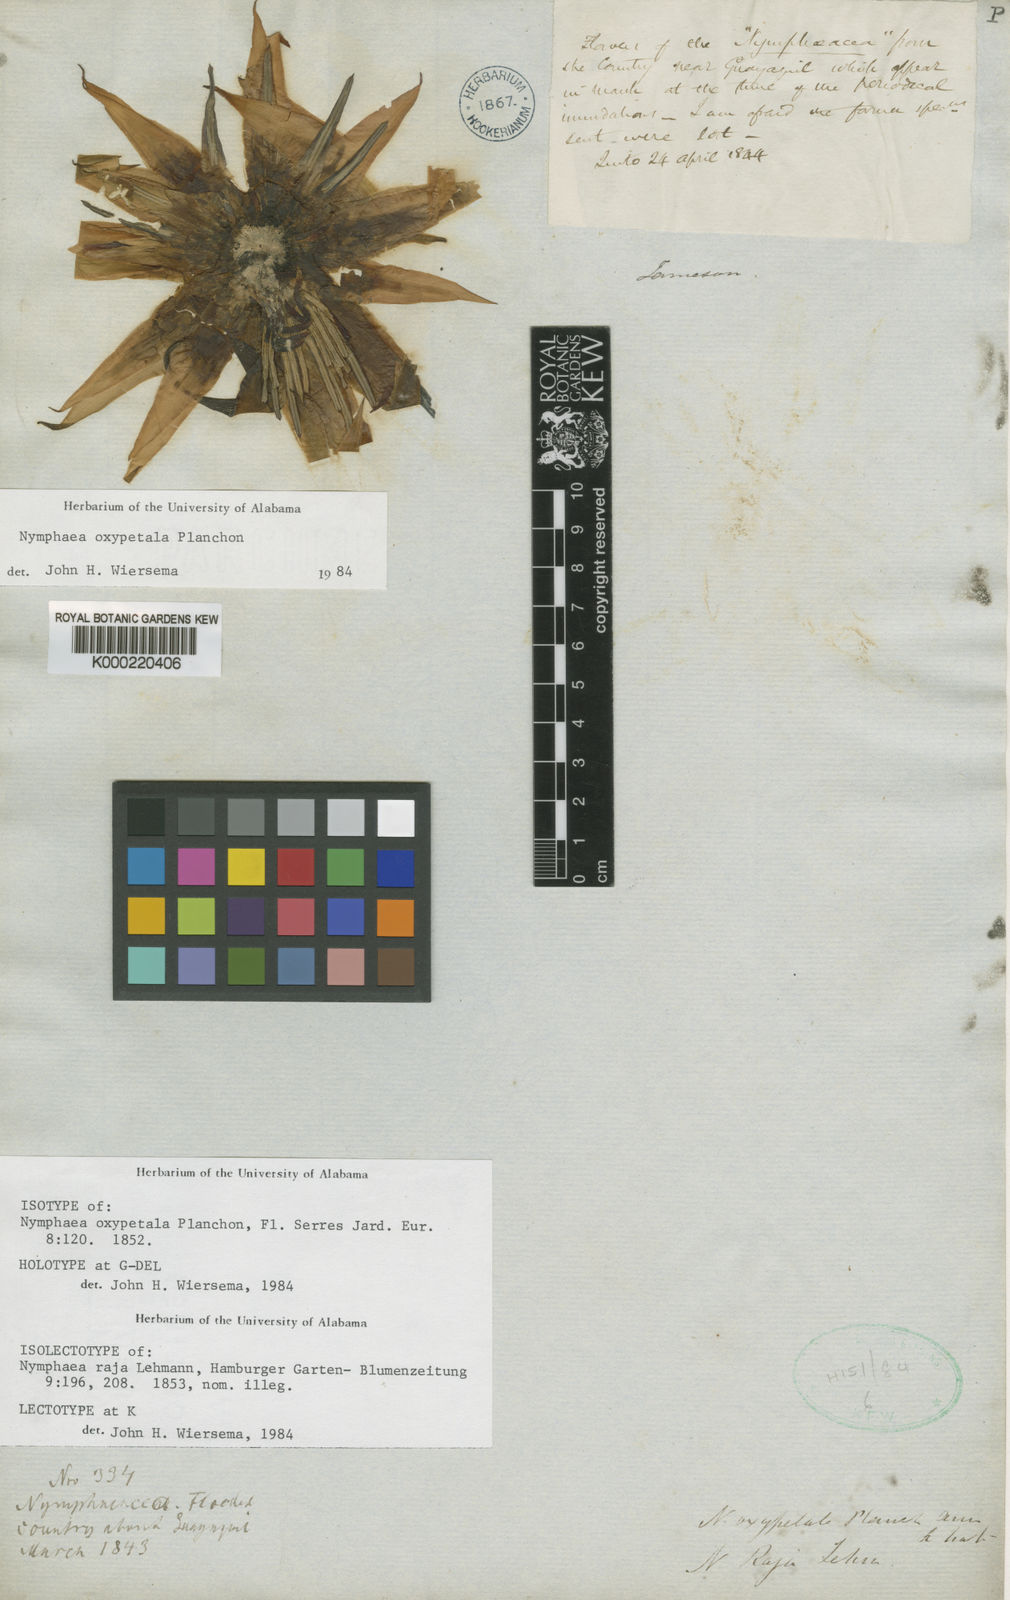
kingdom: Plantae
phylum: Tracheophyta
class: Magnoliopsida
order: Nymphaeales
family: Nymphaeaceae
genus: Nymphaea
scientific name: Nymphaea oxypetala
